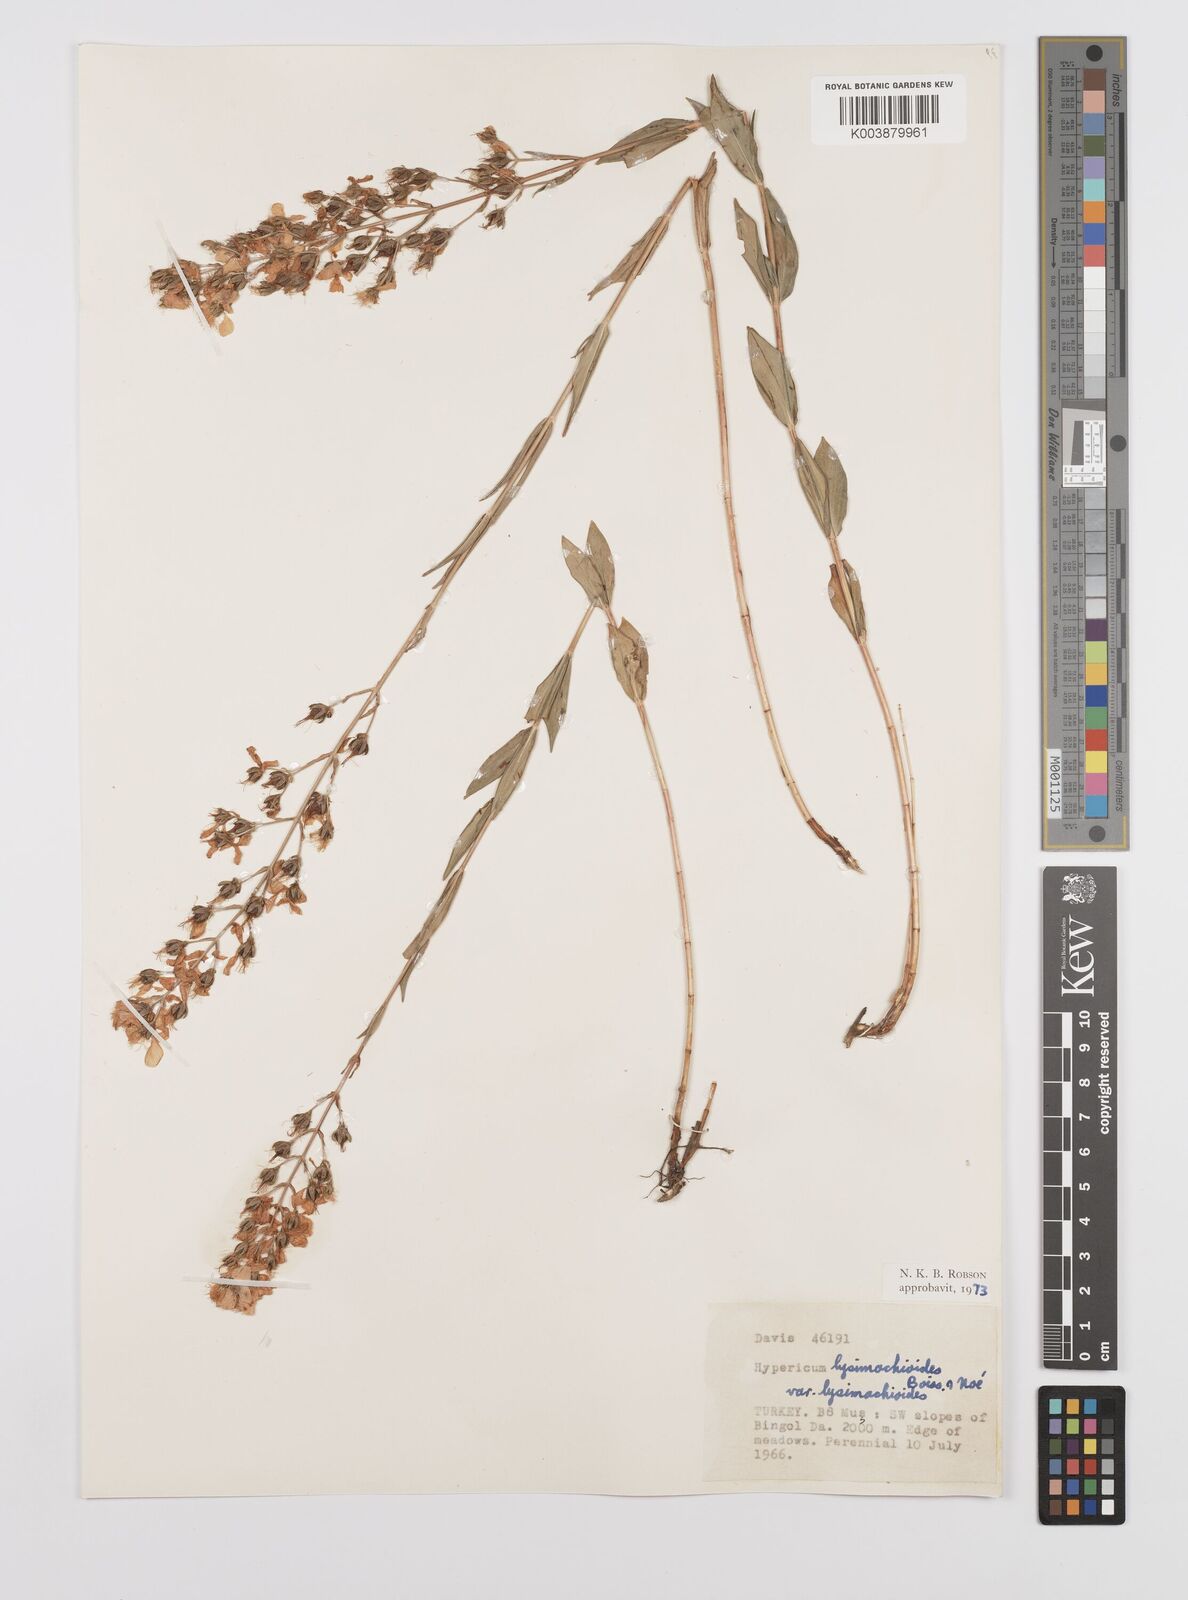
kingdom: Plantae
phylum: Tracheophyta
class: Magnoliopsida
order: Malpighiales
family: Hypericaceae
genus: Hypericum
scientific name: Hypericum lysimachioides
